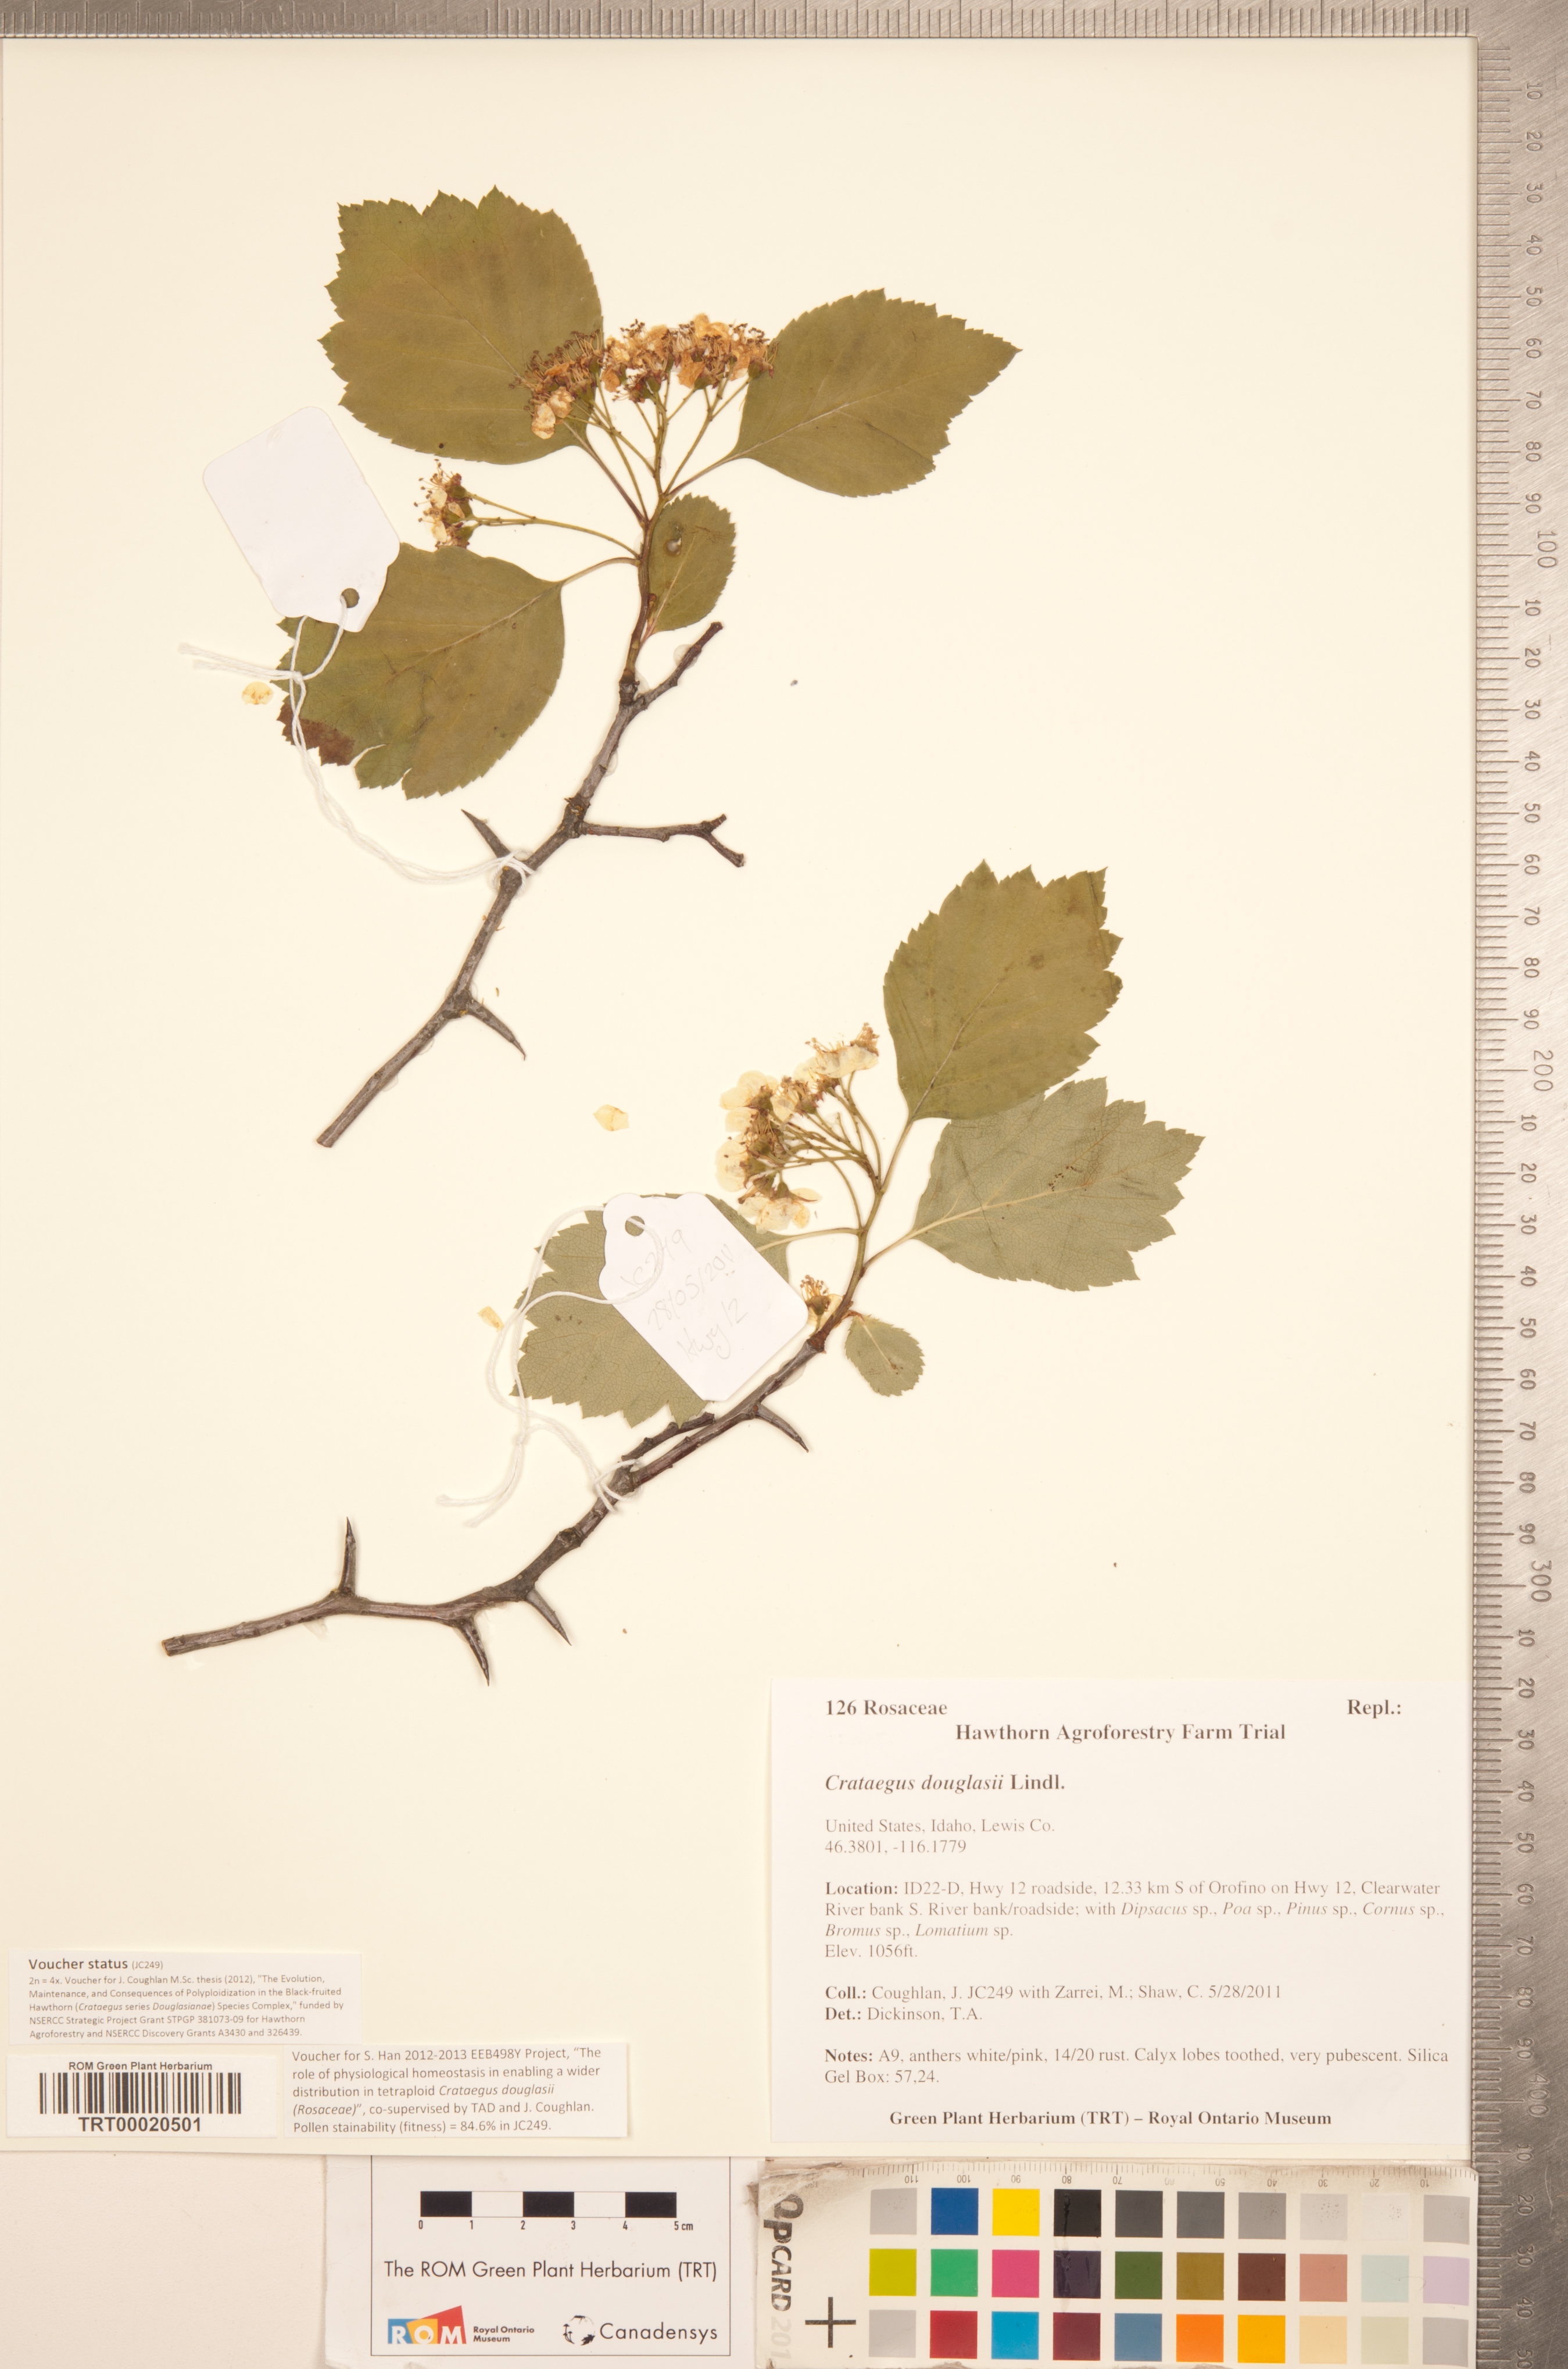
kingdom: Plantae
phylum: Tracheophyta
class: Magnoliopsida
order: Rosales
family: Rosaceae
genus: Crataegus
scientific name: Crataegus douglasii
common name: Black hawthorn
